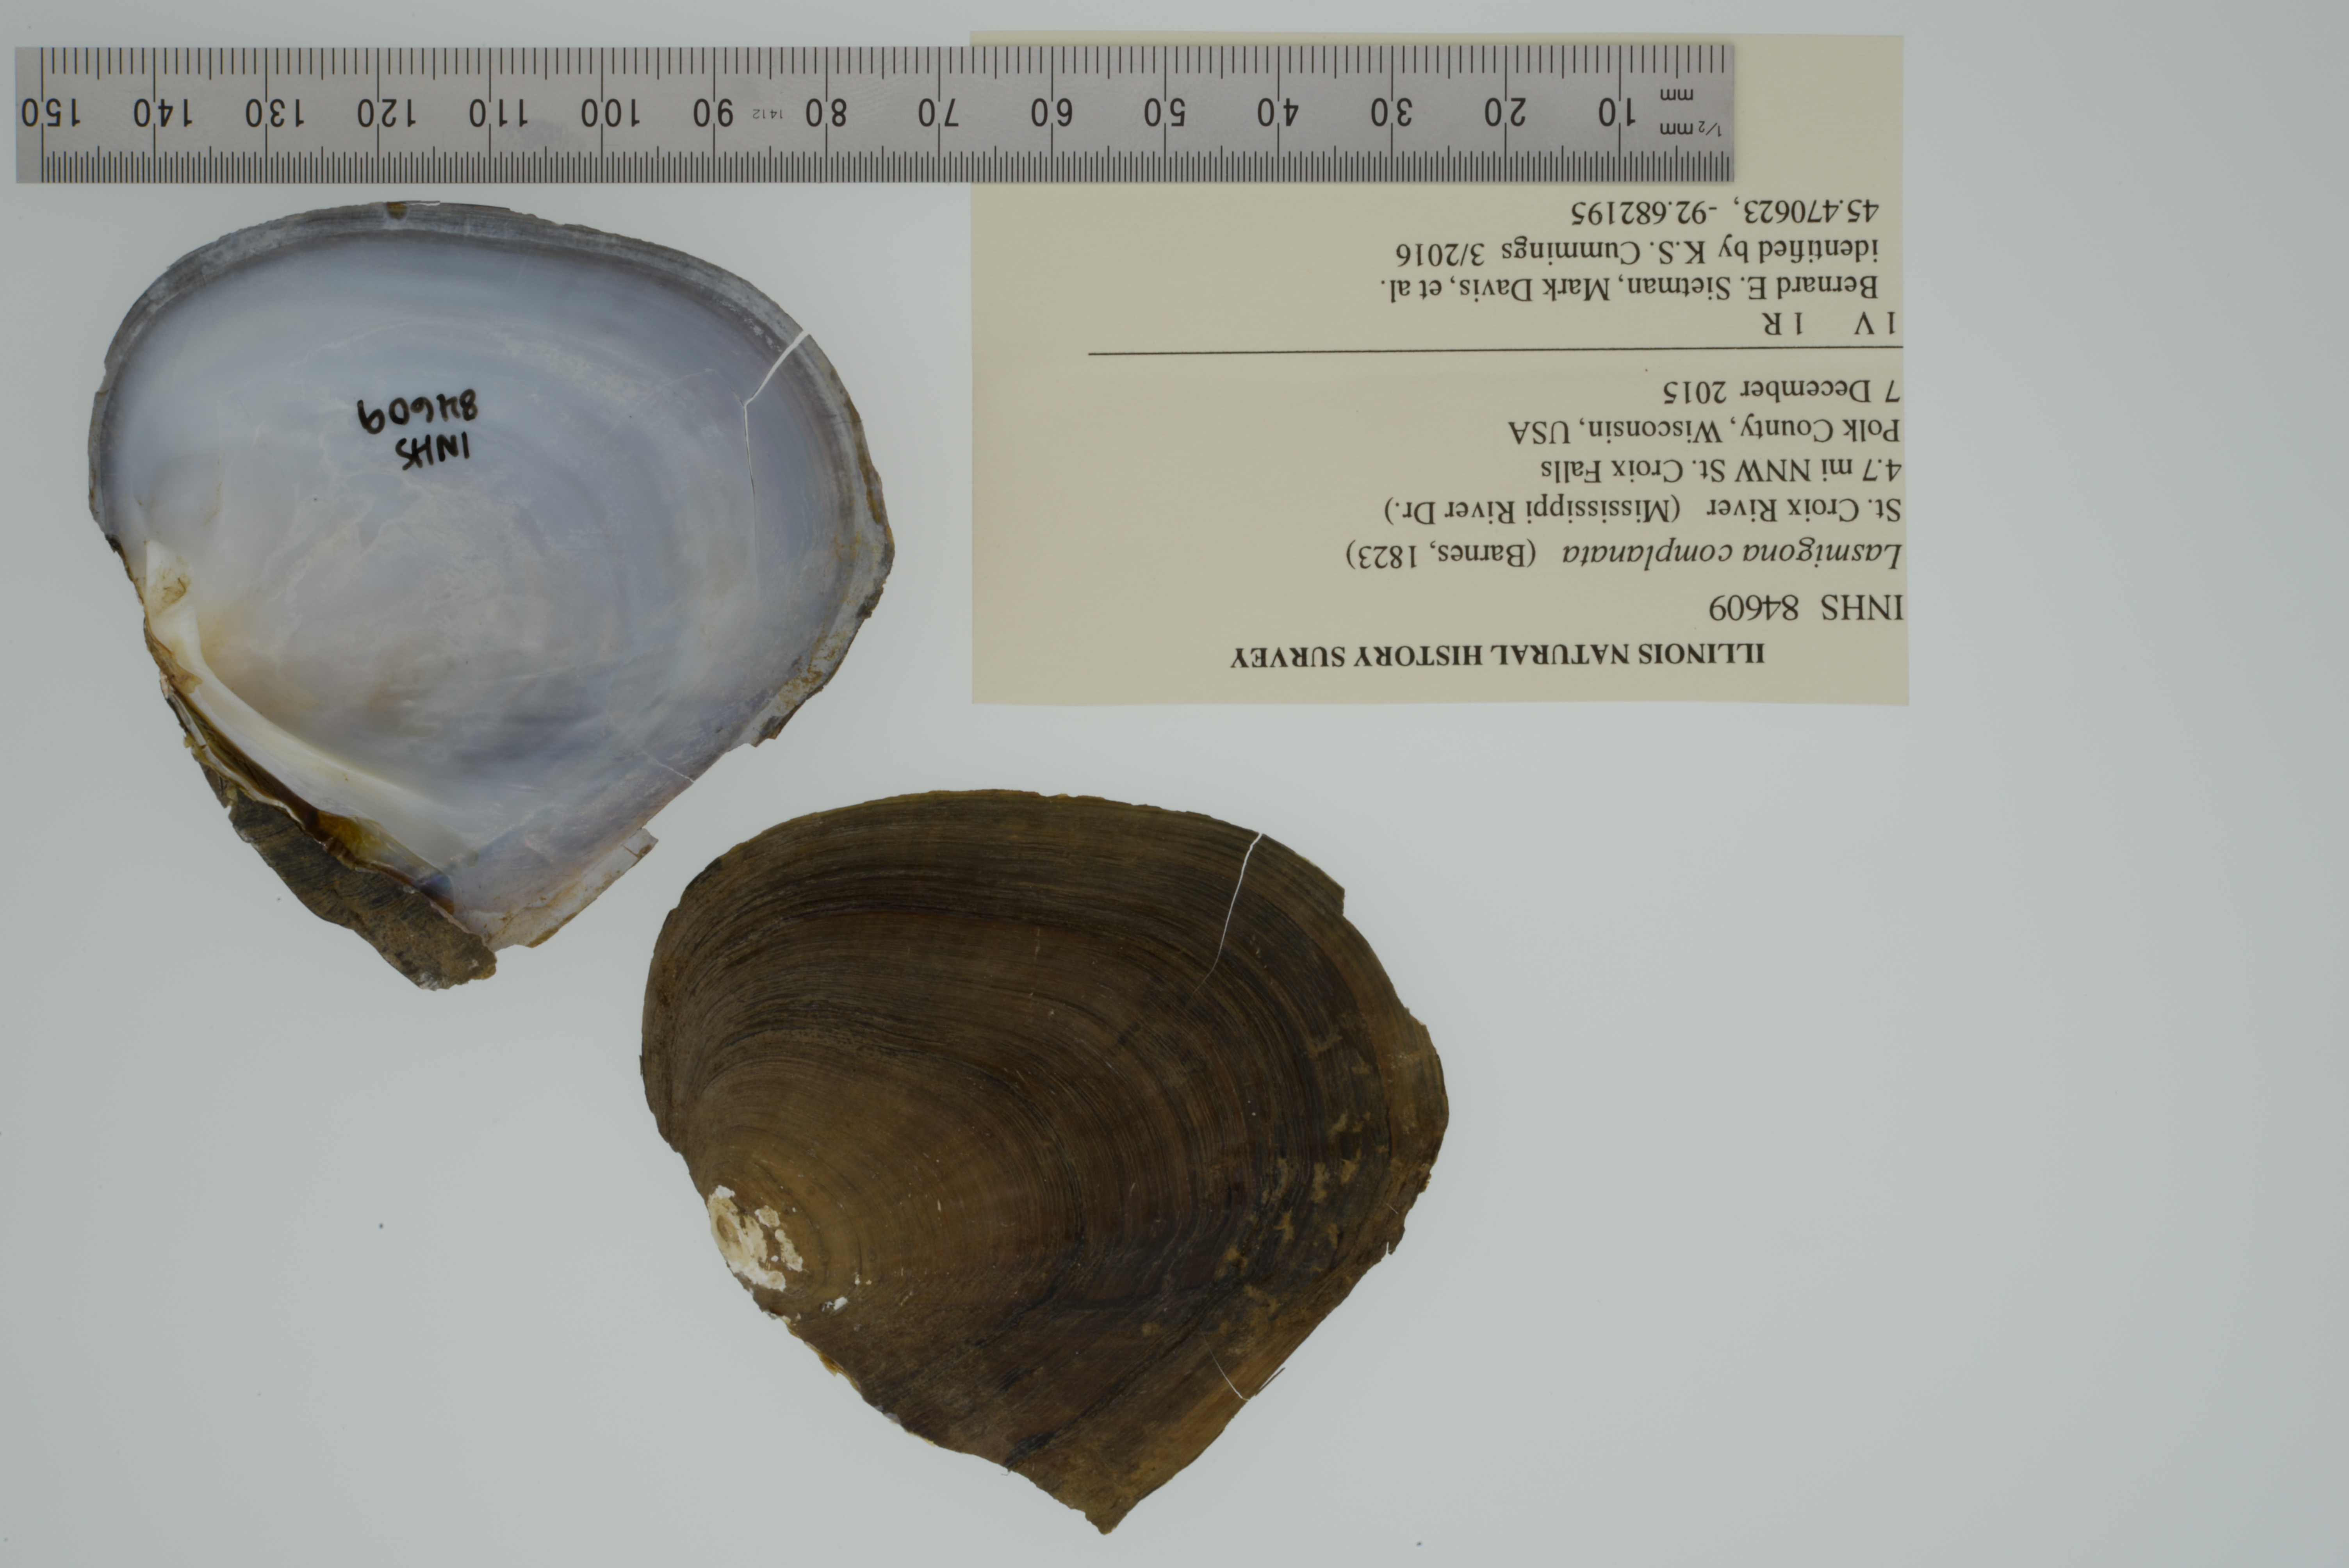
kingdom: Animalia
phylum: Mollusca
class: Bivalvia
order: Unionida
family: Unionidae
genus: Lasmigona
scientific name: Lasmigona complanata
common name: White heelsplitter
